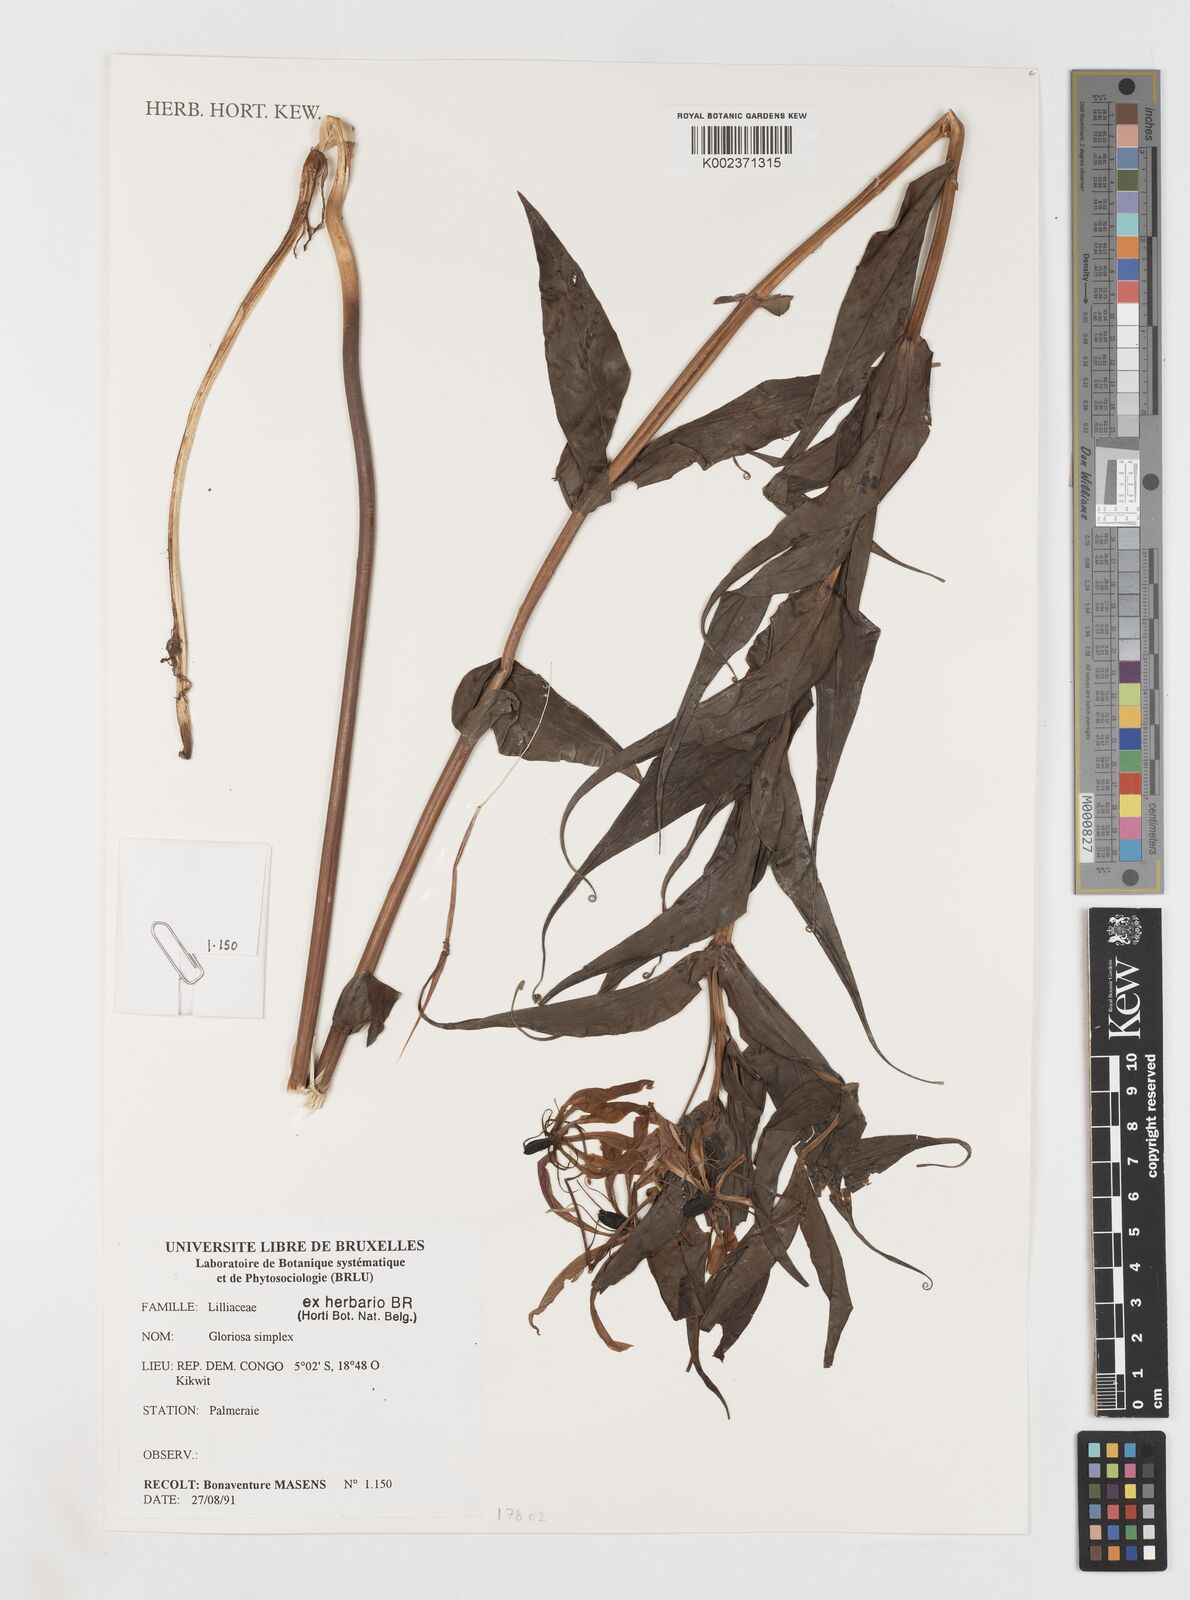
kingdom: Plantae
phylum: Tracheophyta
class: Liliopsida
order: Liliales
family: Colchicaceae
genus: Gloriosa
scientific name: Gloriosa simplex
